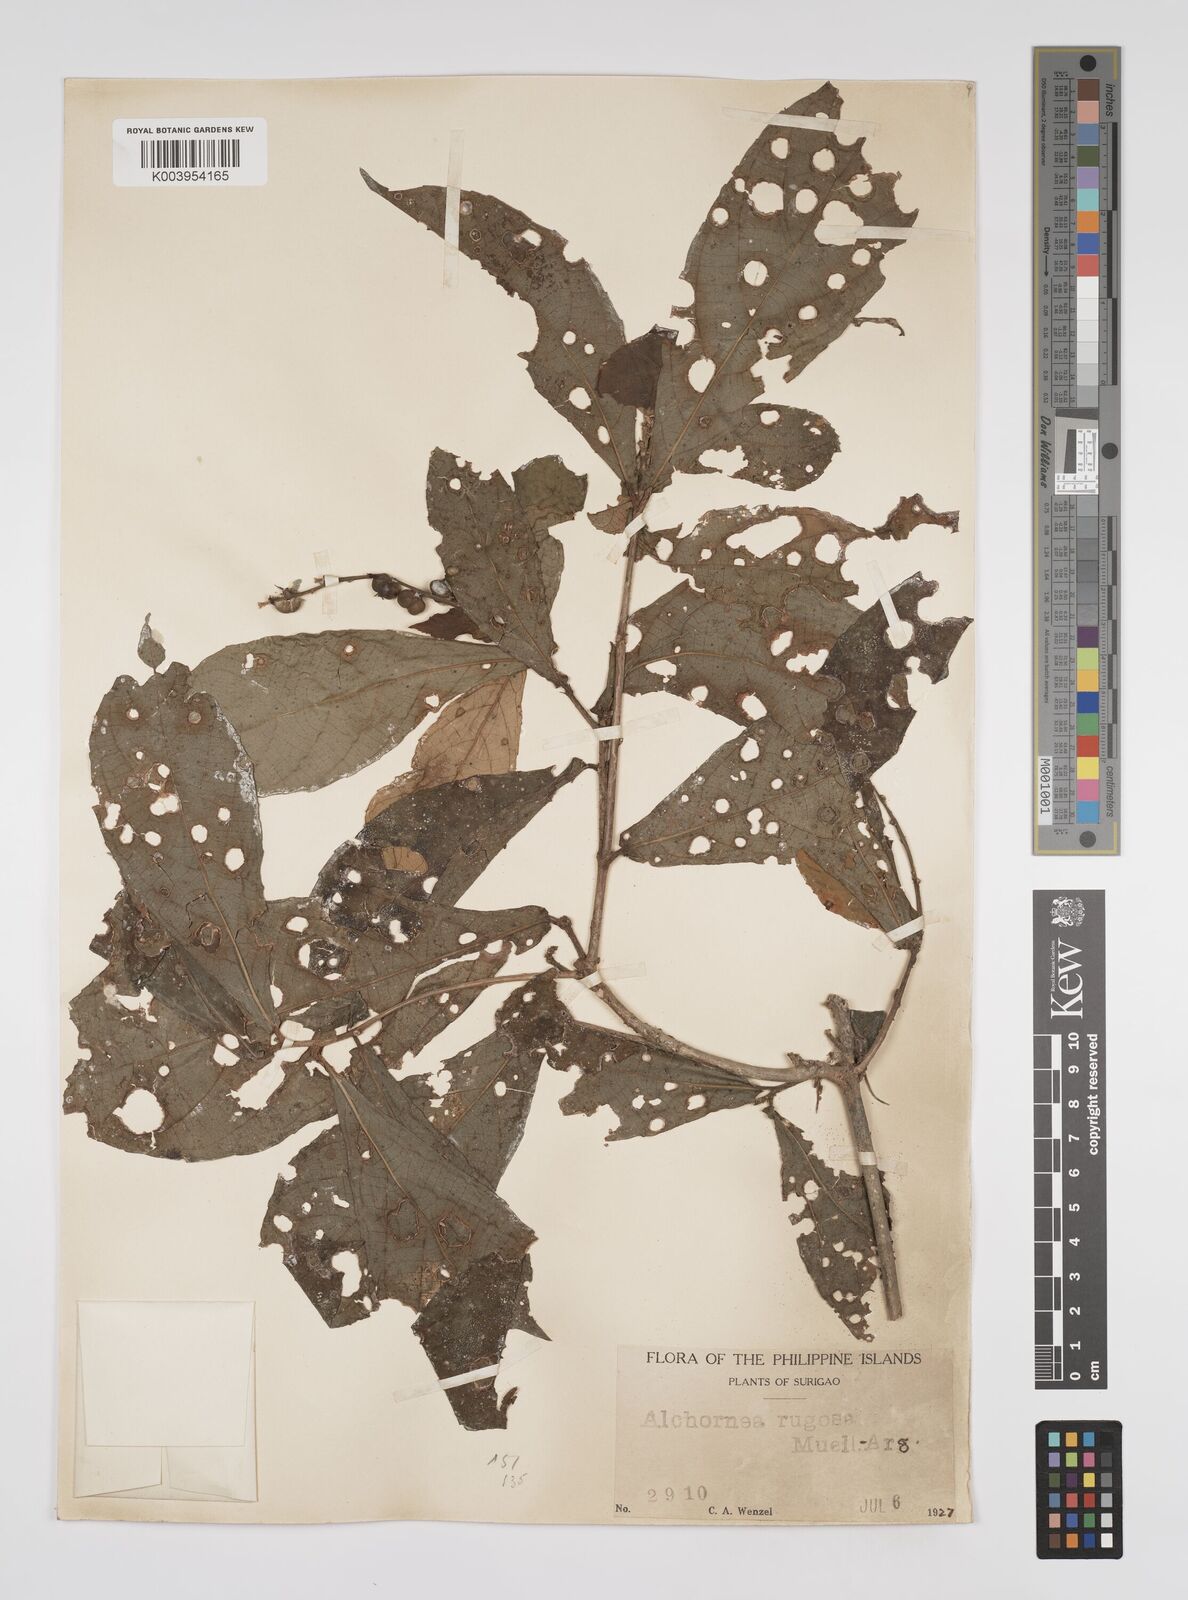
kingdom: Plantae
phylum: Tracheophyta
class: Magnoliopsida
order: Malpighiales
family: Euphorbiaceae
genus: Alchornea
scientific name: Alchornea rugosa
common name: Alchorntree
